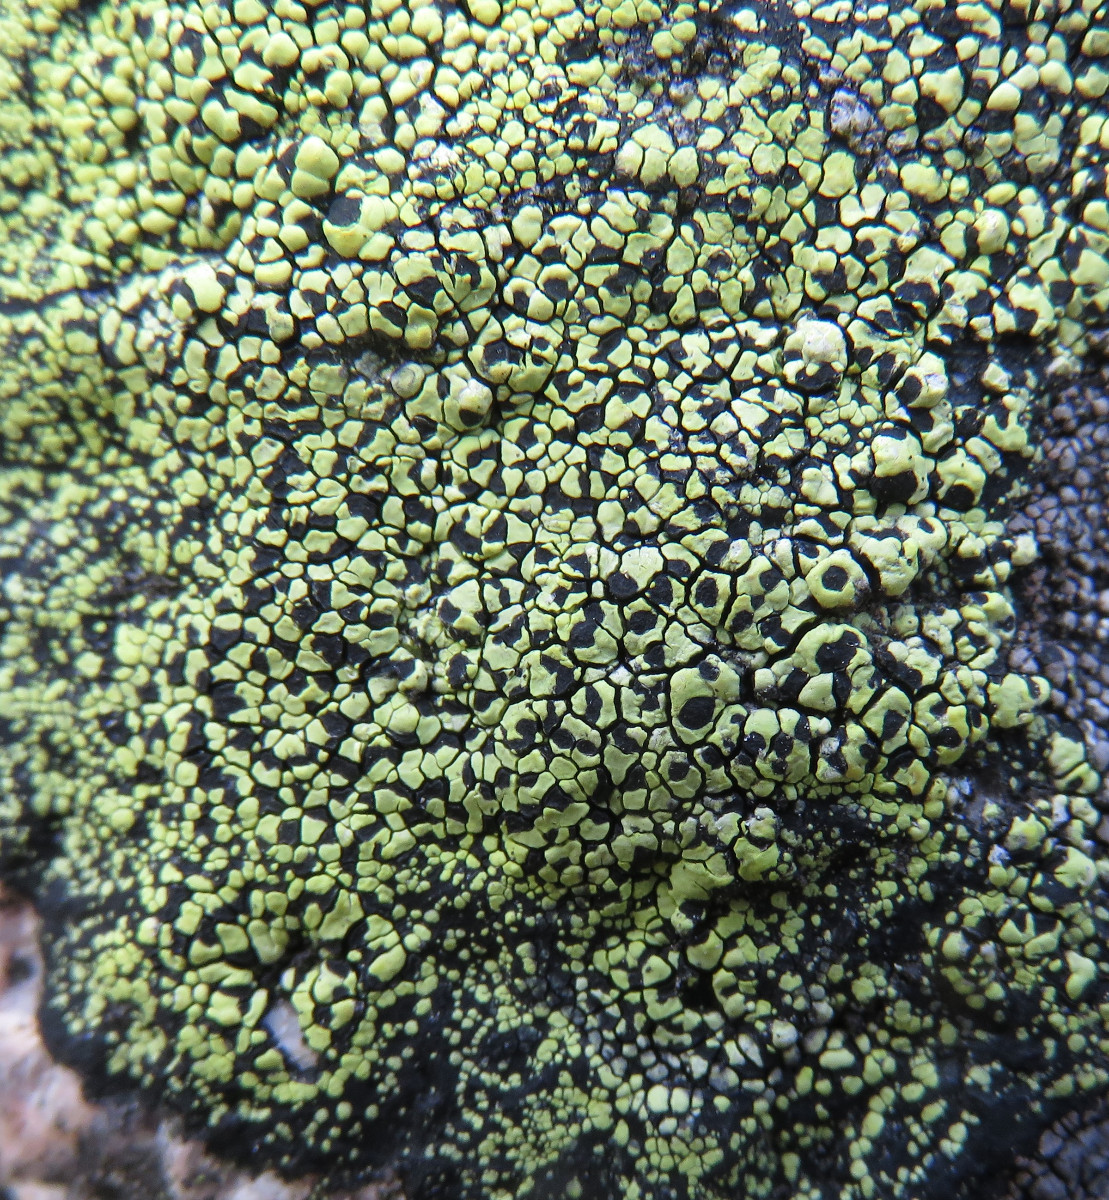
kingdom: Fungi
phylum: Ascomycota
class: Lecanoromycetes
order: Rhizocarpales
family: Rhizocarpaceae
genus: Rhizocarpon
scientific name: Rhizocarpon lecanorinum
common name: krave-landkortlav
